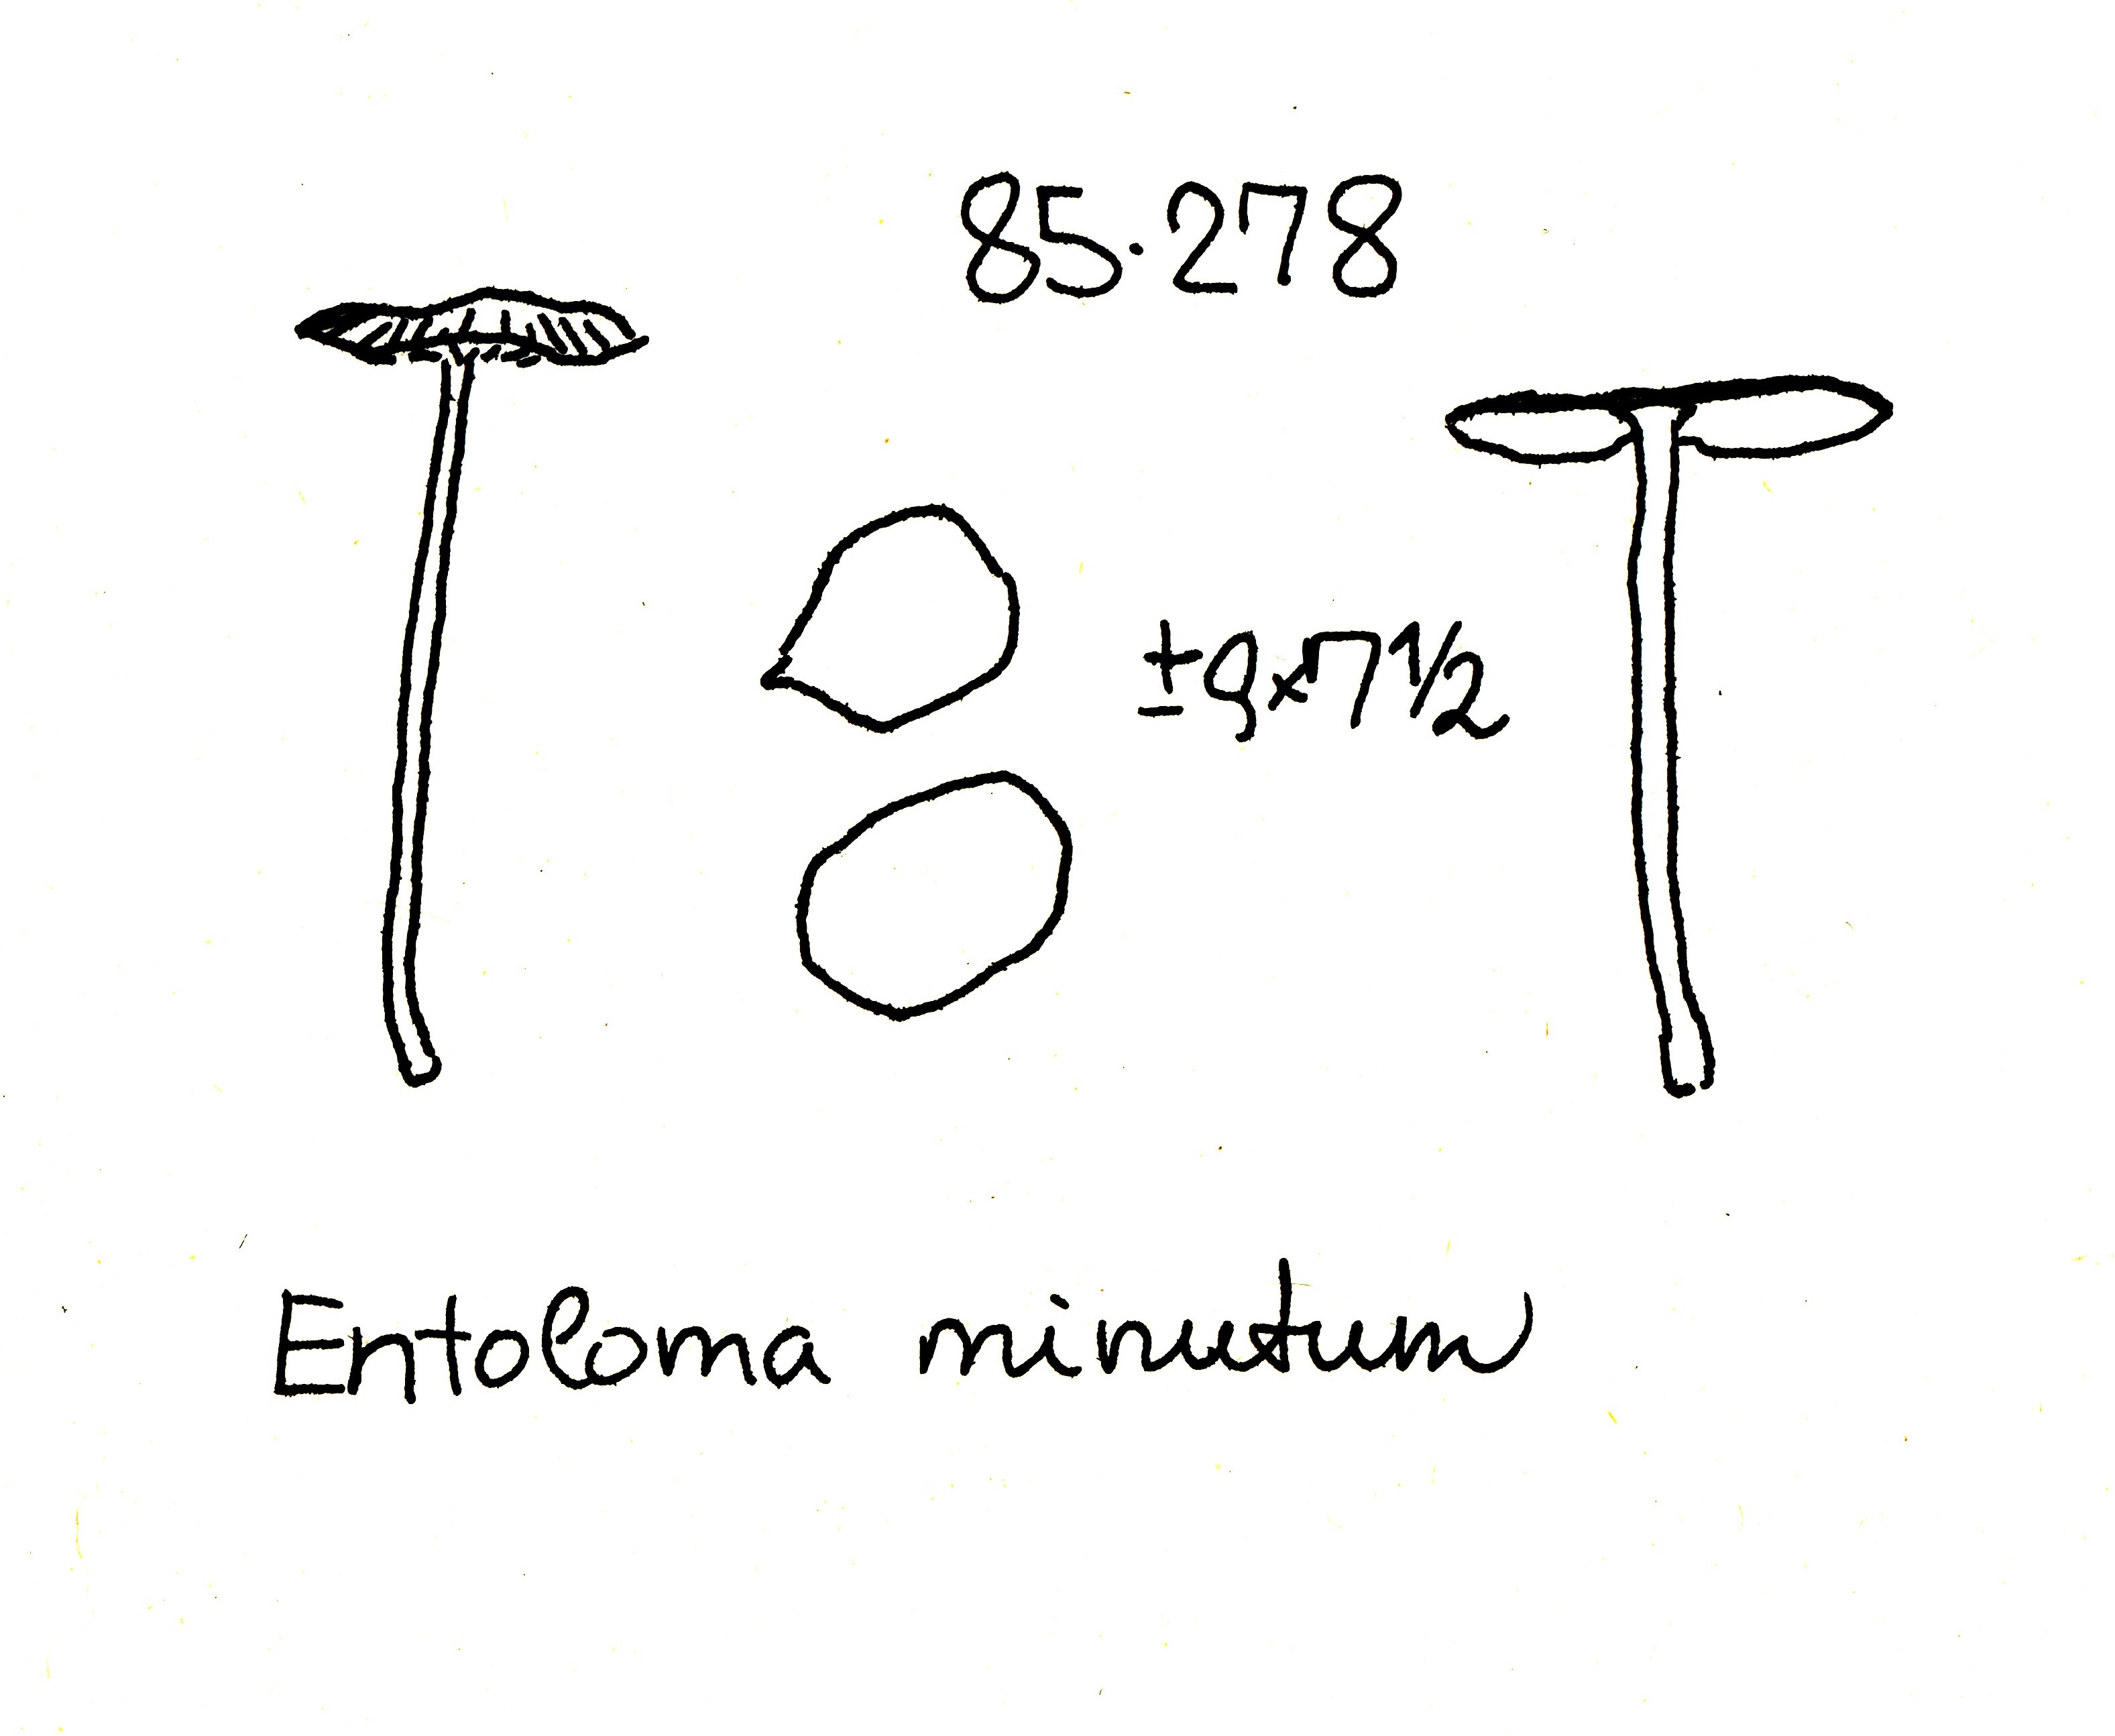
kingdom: Fungi
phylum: Basidiomycota
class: Agaricomycetes
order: Agaricales
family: Entolomataceae
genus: Entoloma
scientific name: Entoloma minutum
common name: liden rødblad
